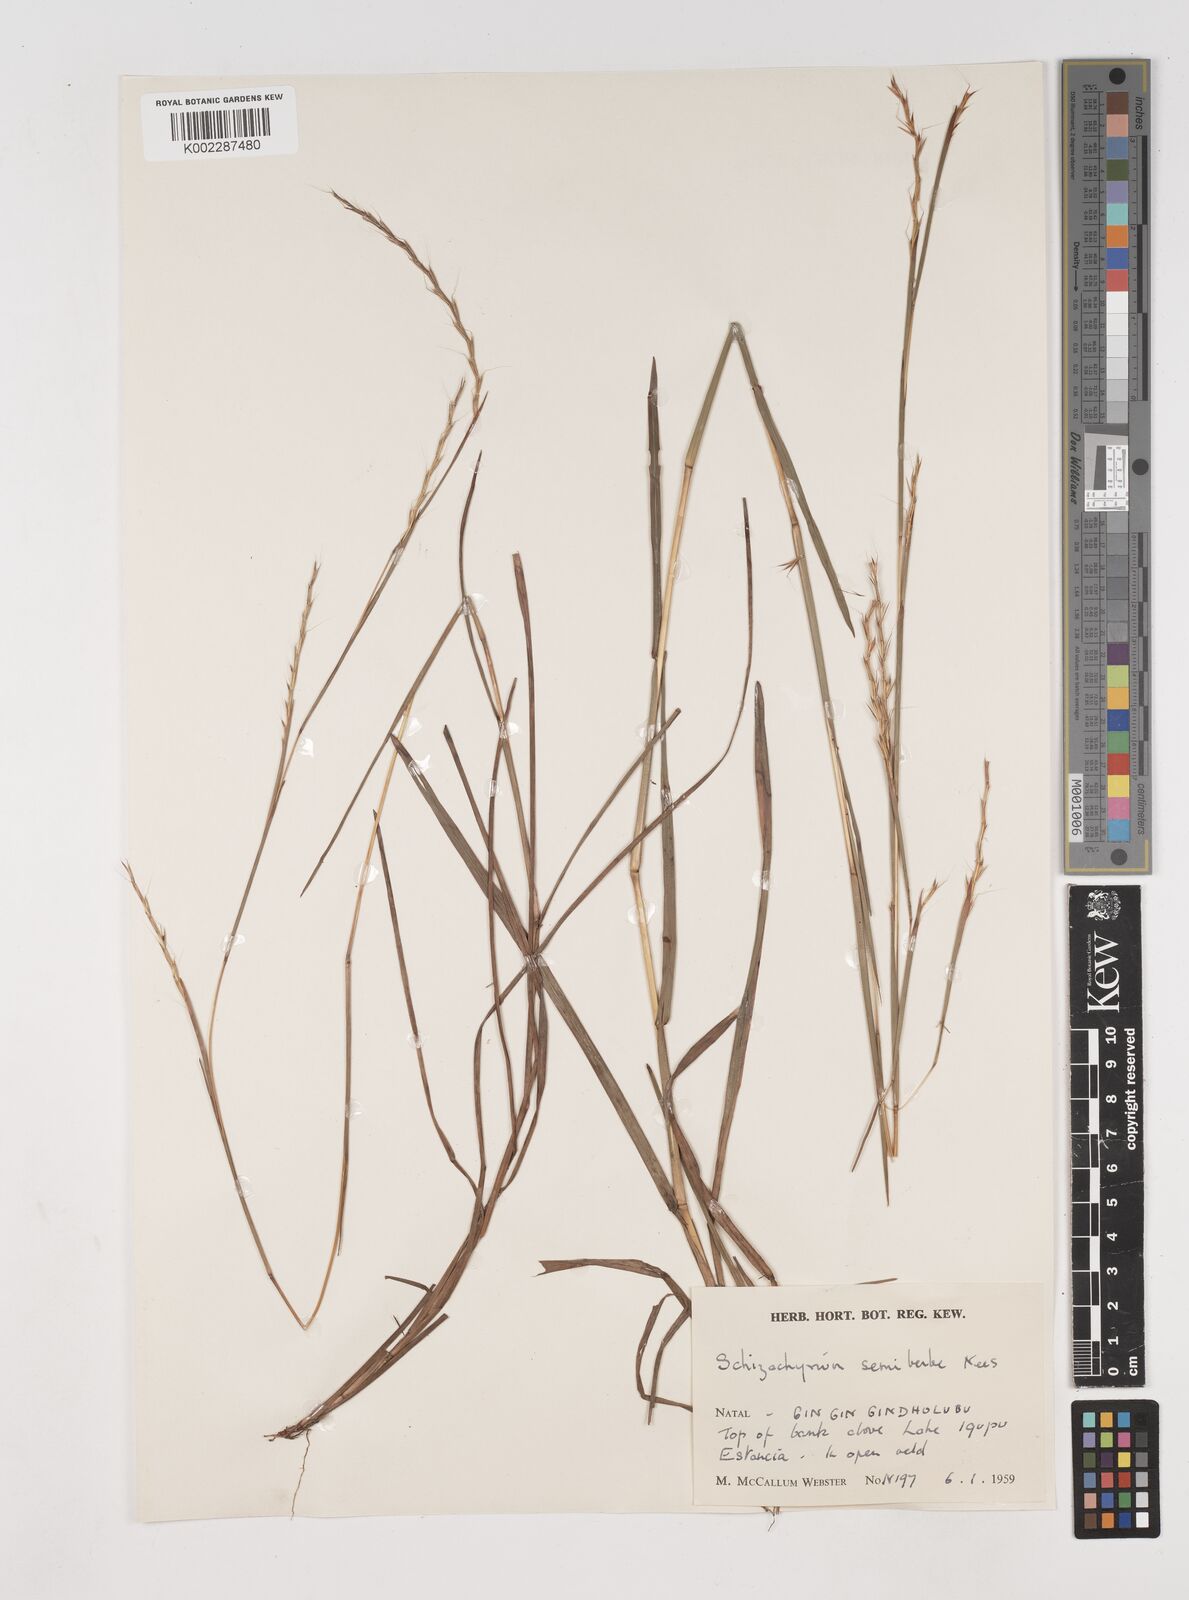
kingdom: Plantae
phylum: Tracheophyta
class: Liliopsida
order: Poales
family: Poaceae
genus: Schizachyrium
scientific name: Schizachyrium sanguineum
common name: Crimson bluestem
